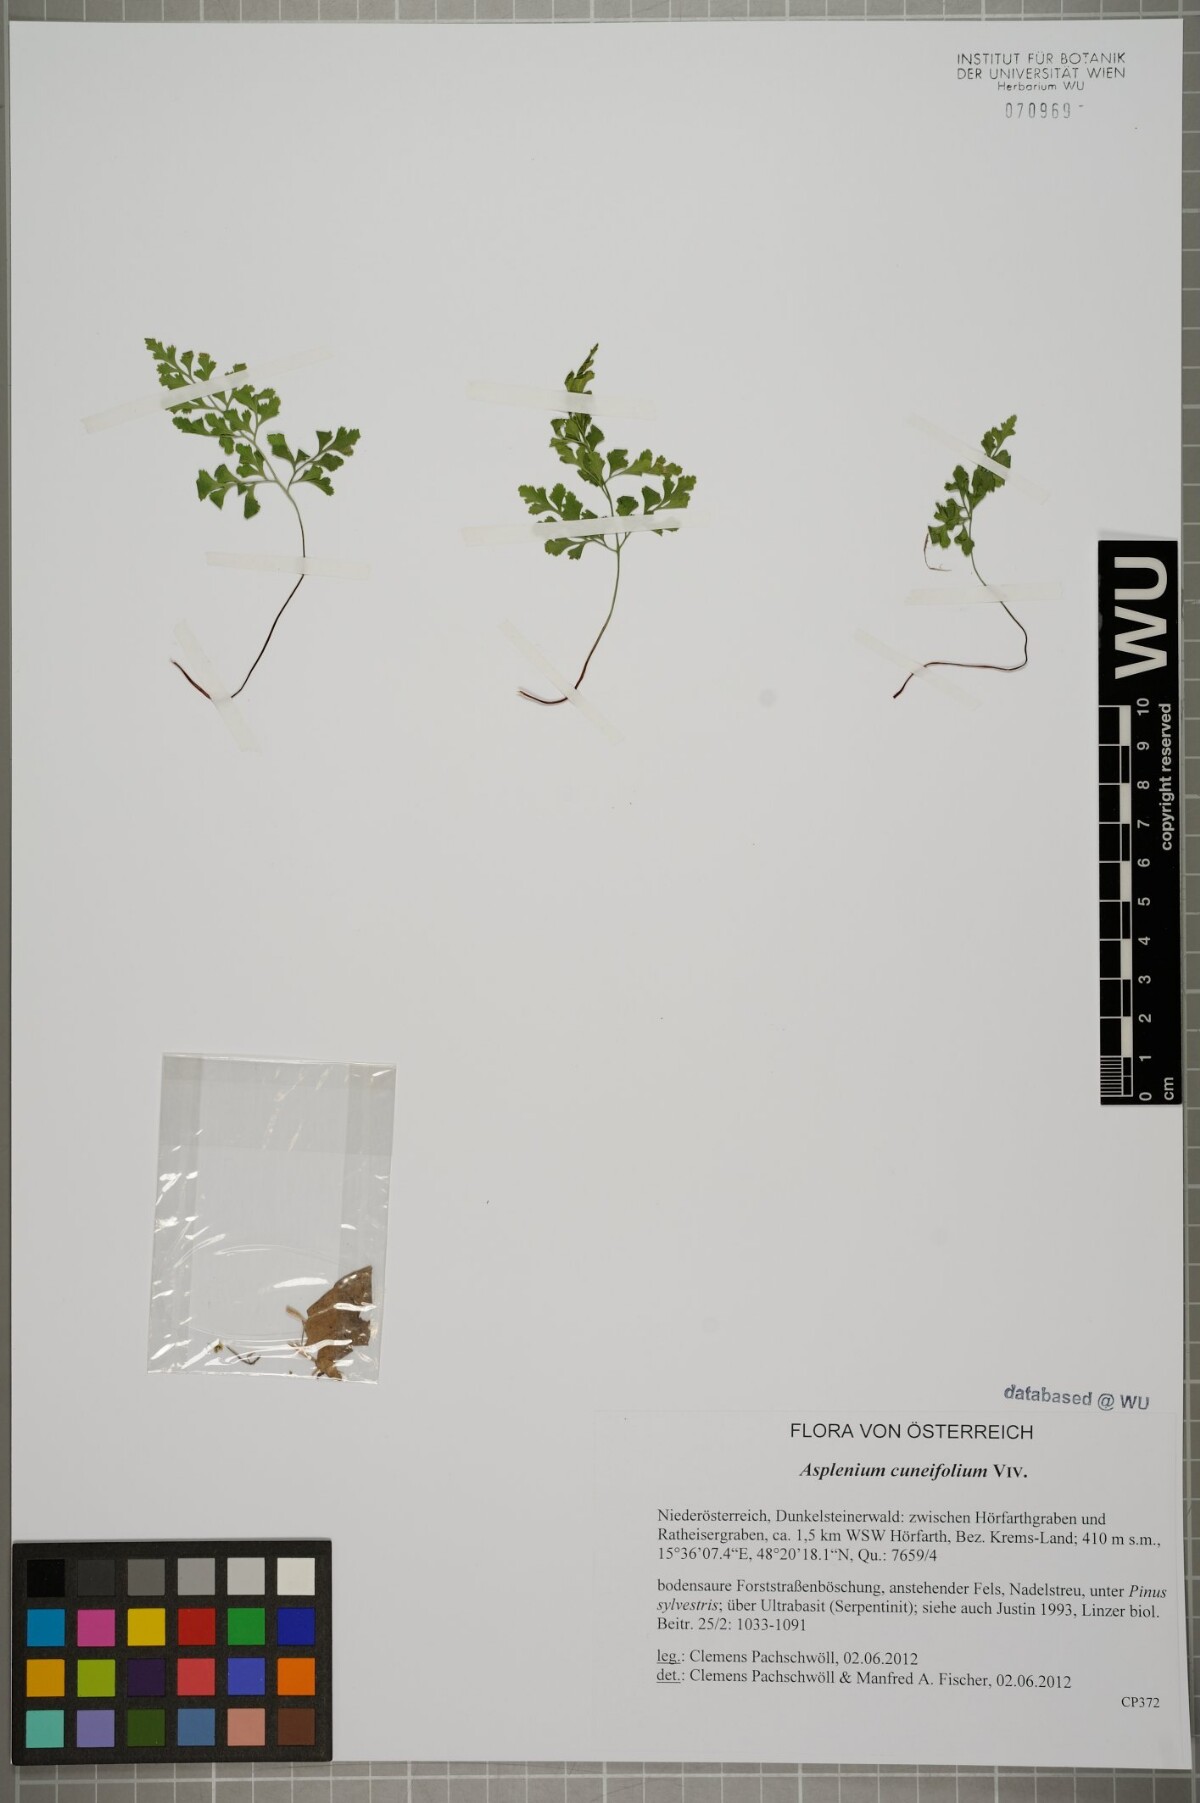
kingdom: Plantae
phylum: Tracheophyta
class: Polypodiopsida
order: Polypodiales
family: Aspleniaceae
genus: Asplenium
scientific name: Asplenium cuneifolium
